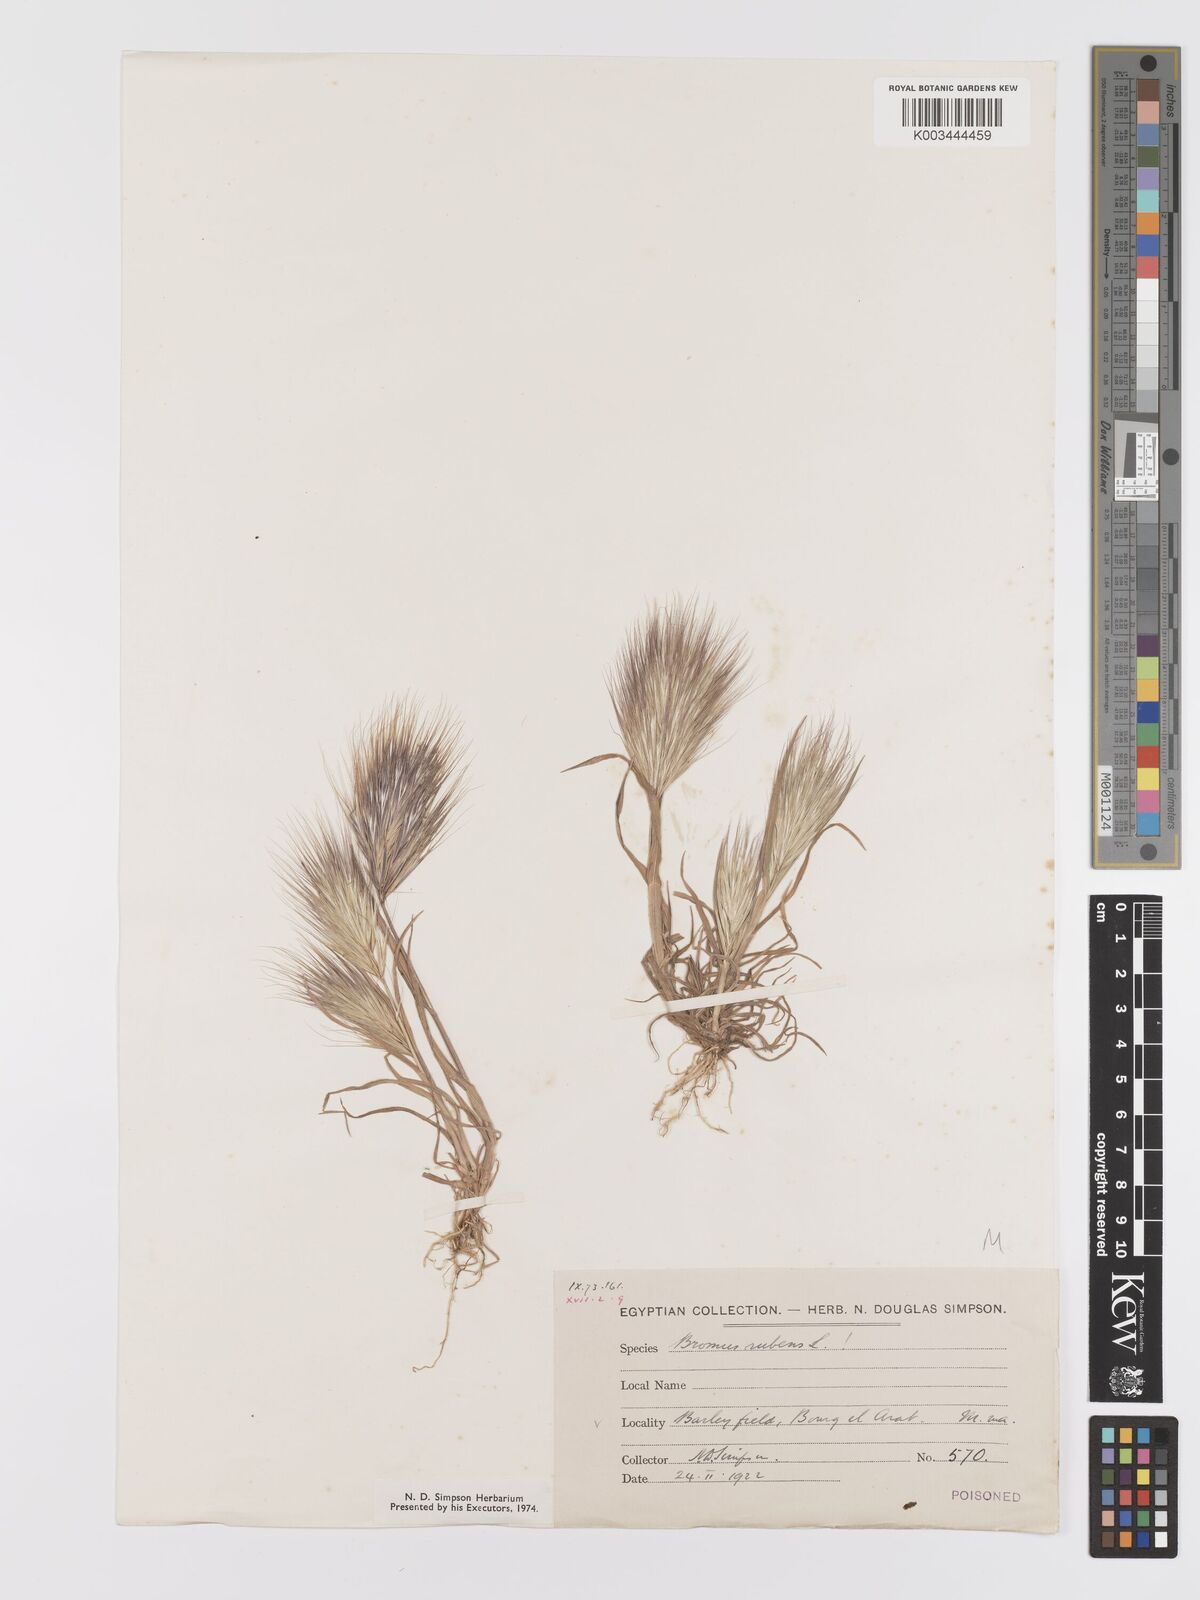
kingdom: Plantae
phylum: Tracheophyta
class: Liliopsida
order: Poales
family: Poaceae
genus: Bromus
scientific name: Bromus rubens
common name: Red brome
